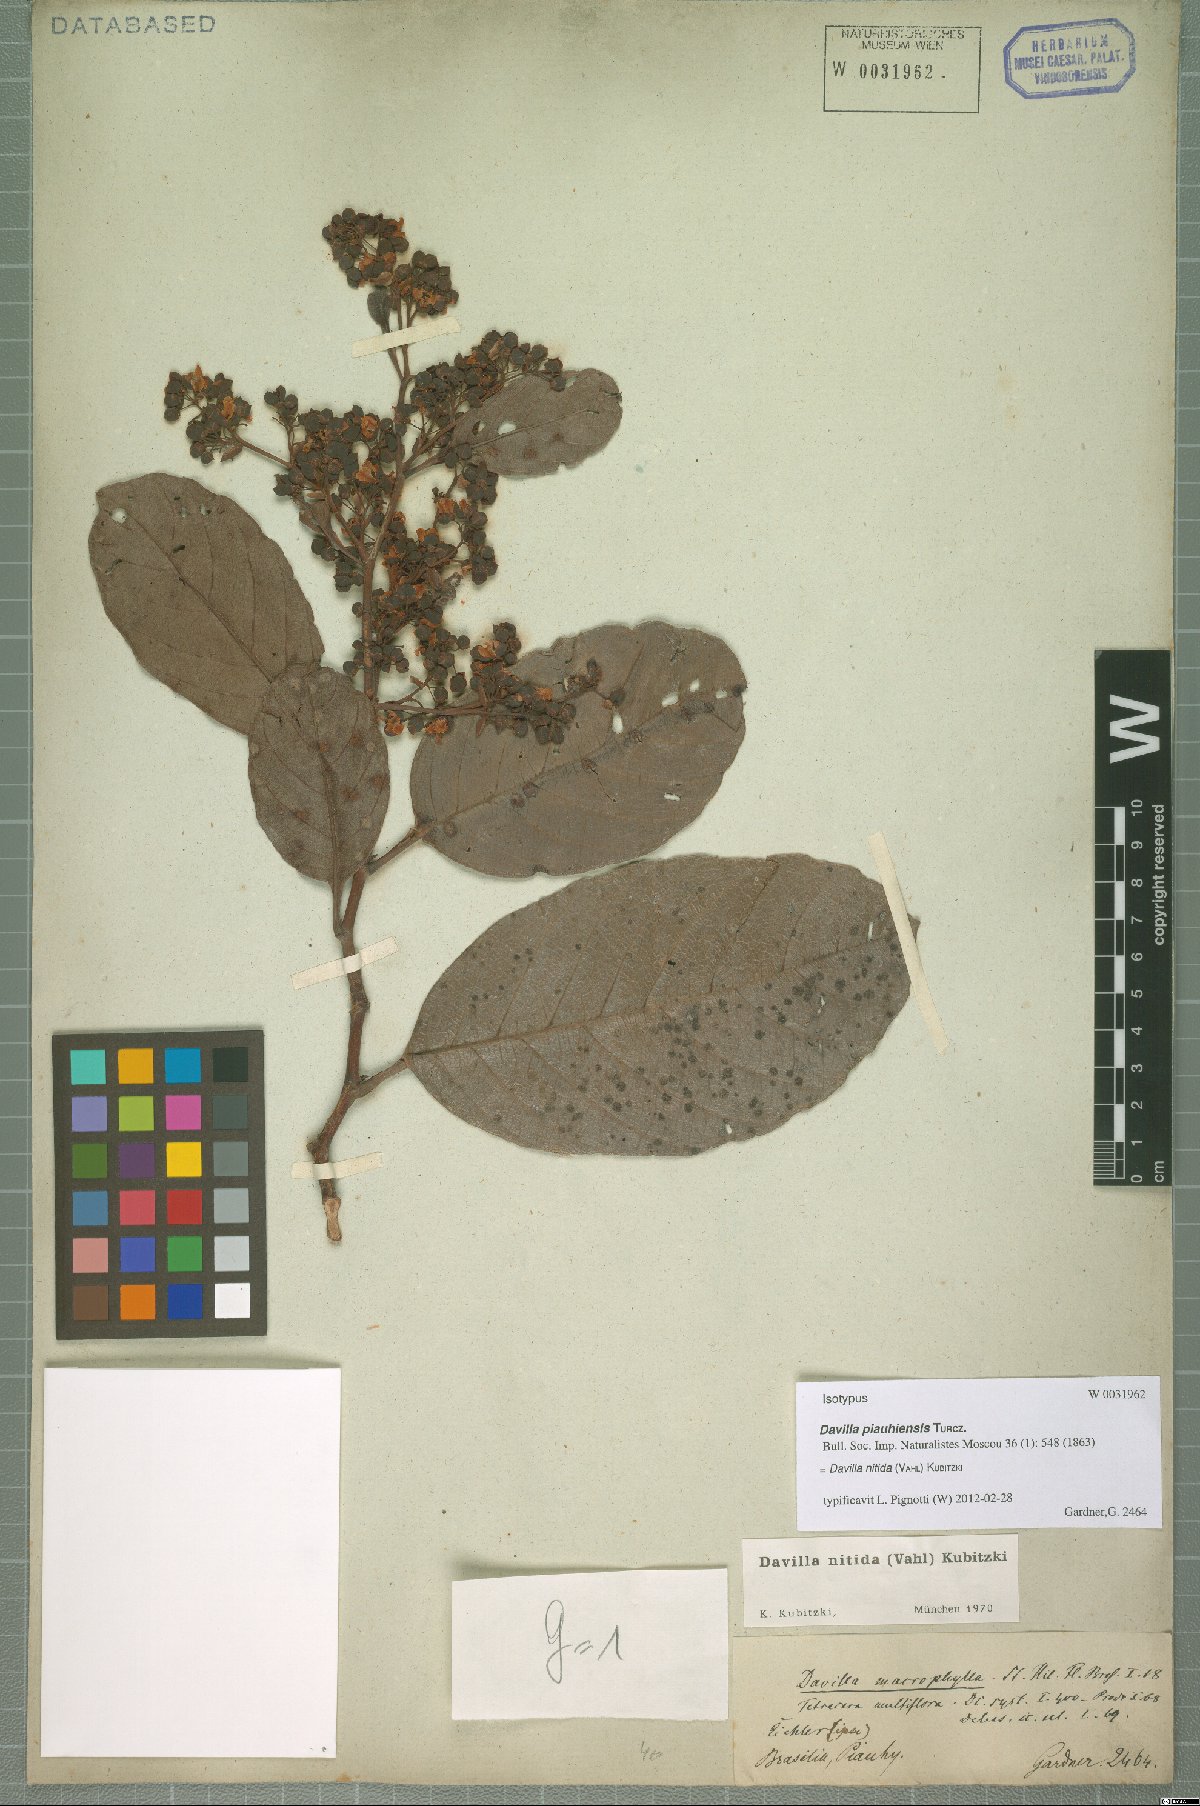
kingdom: Plantae
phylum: Tracheophyta
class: Magnoliopsida
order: Dilleniales
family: Dilleniaceae
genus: Davilla
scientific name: Davilla nitida
